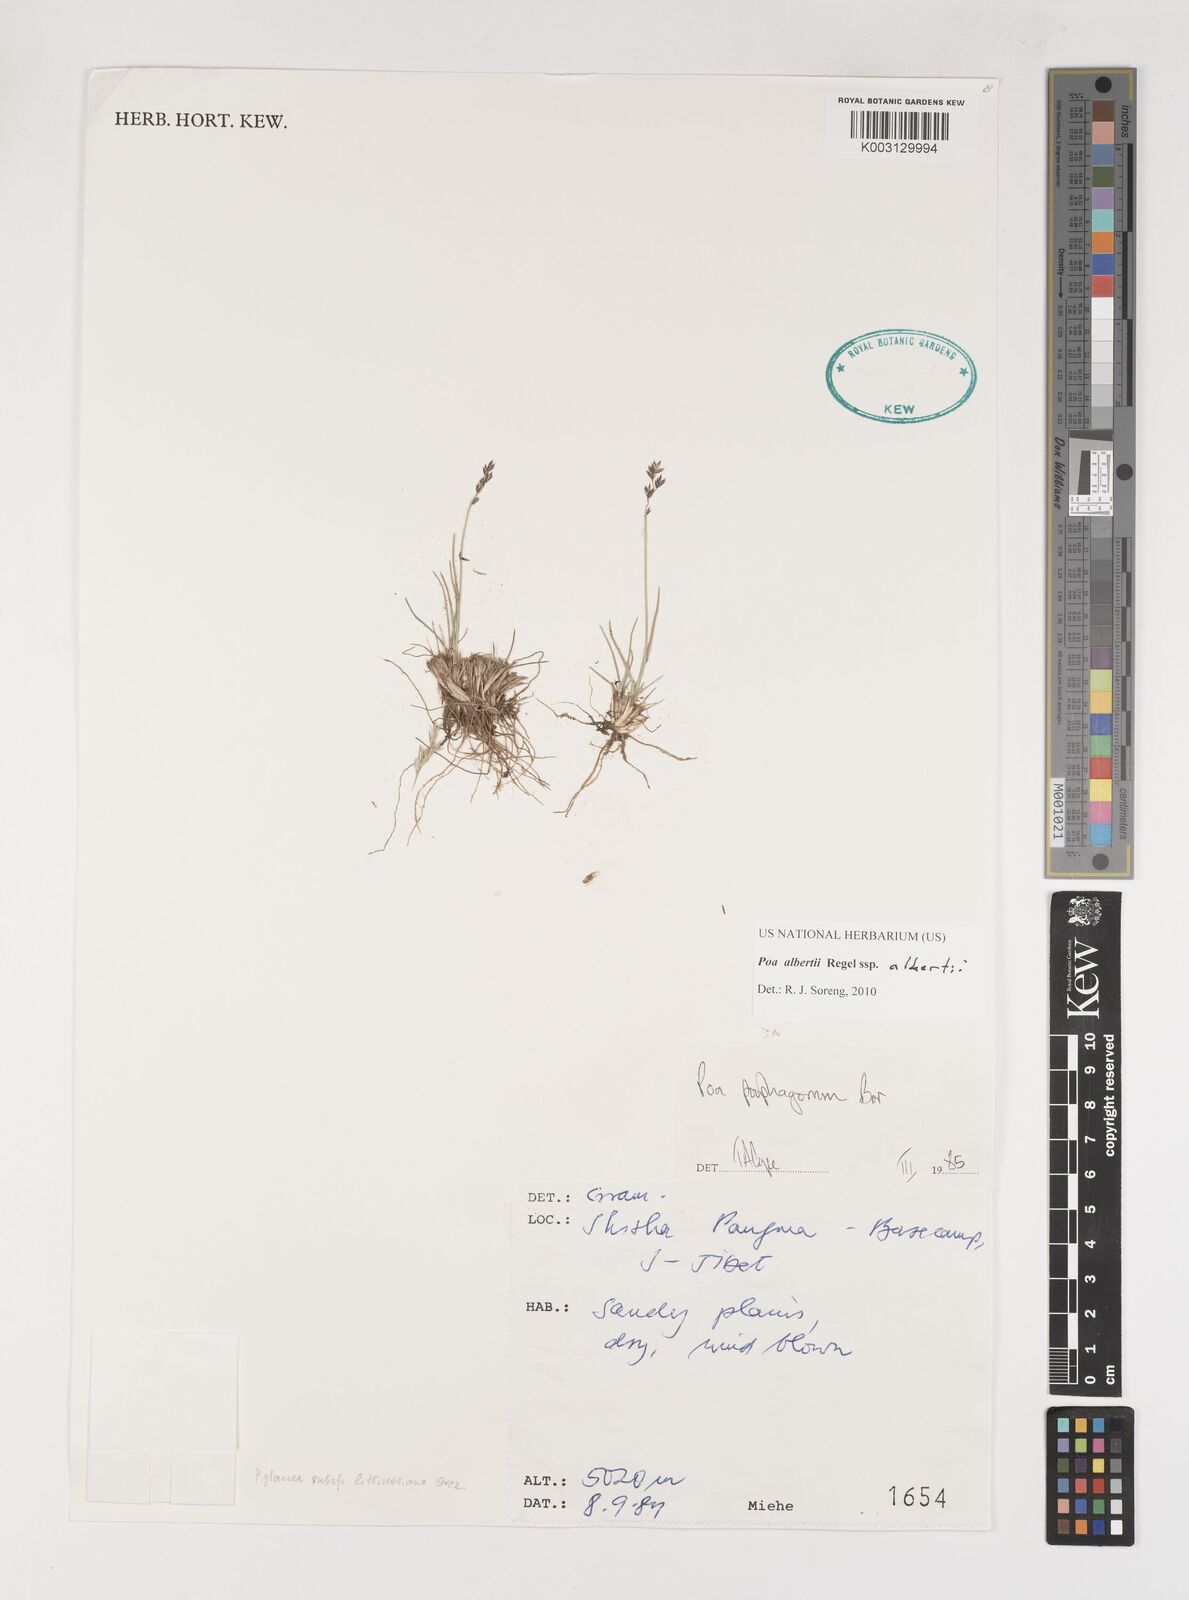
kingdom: Plantae
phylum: Tracheophyta
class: Liliopsida
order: Poales
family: Poaceae
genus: Poa
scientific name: Poa alberti
